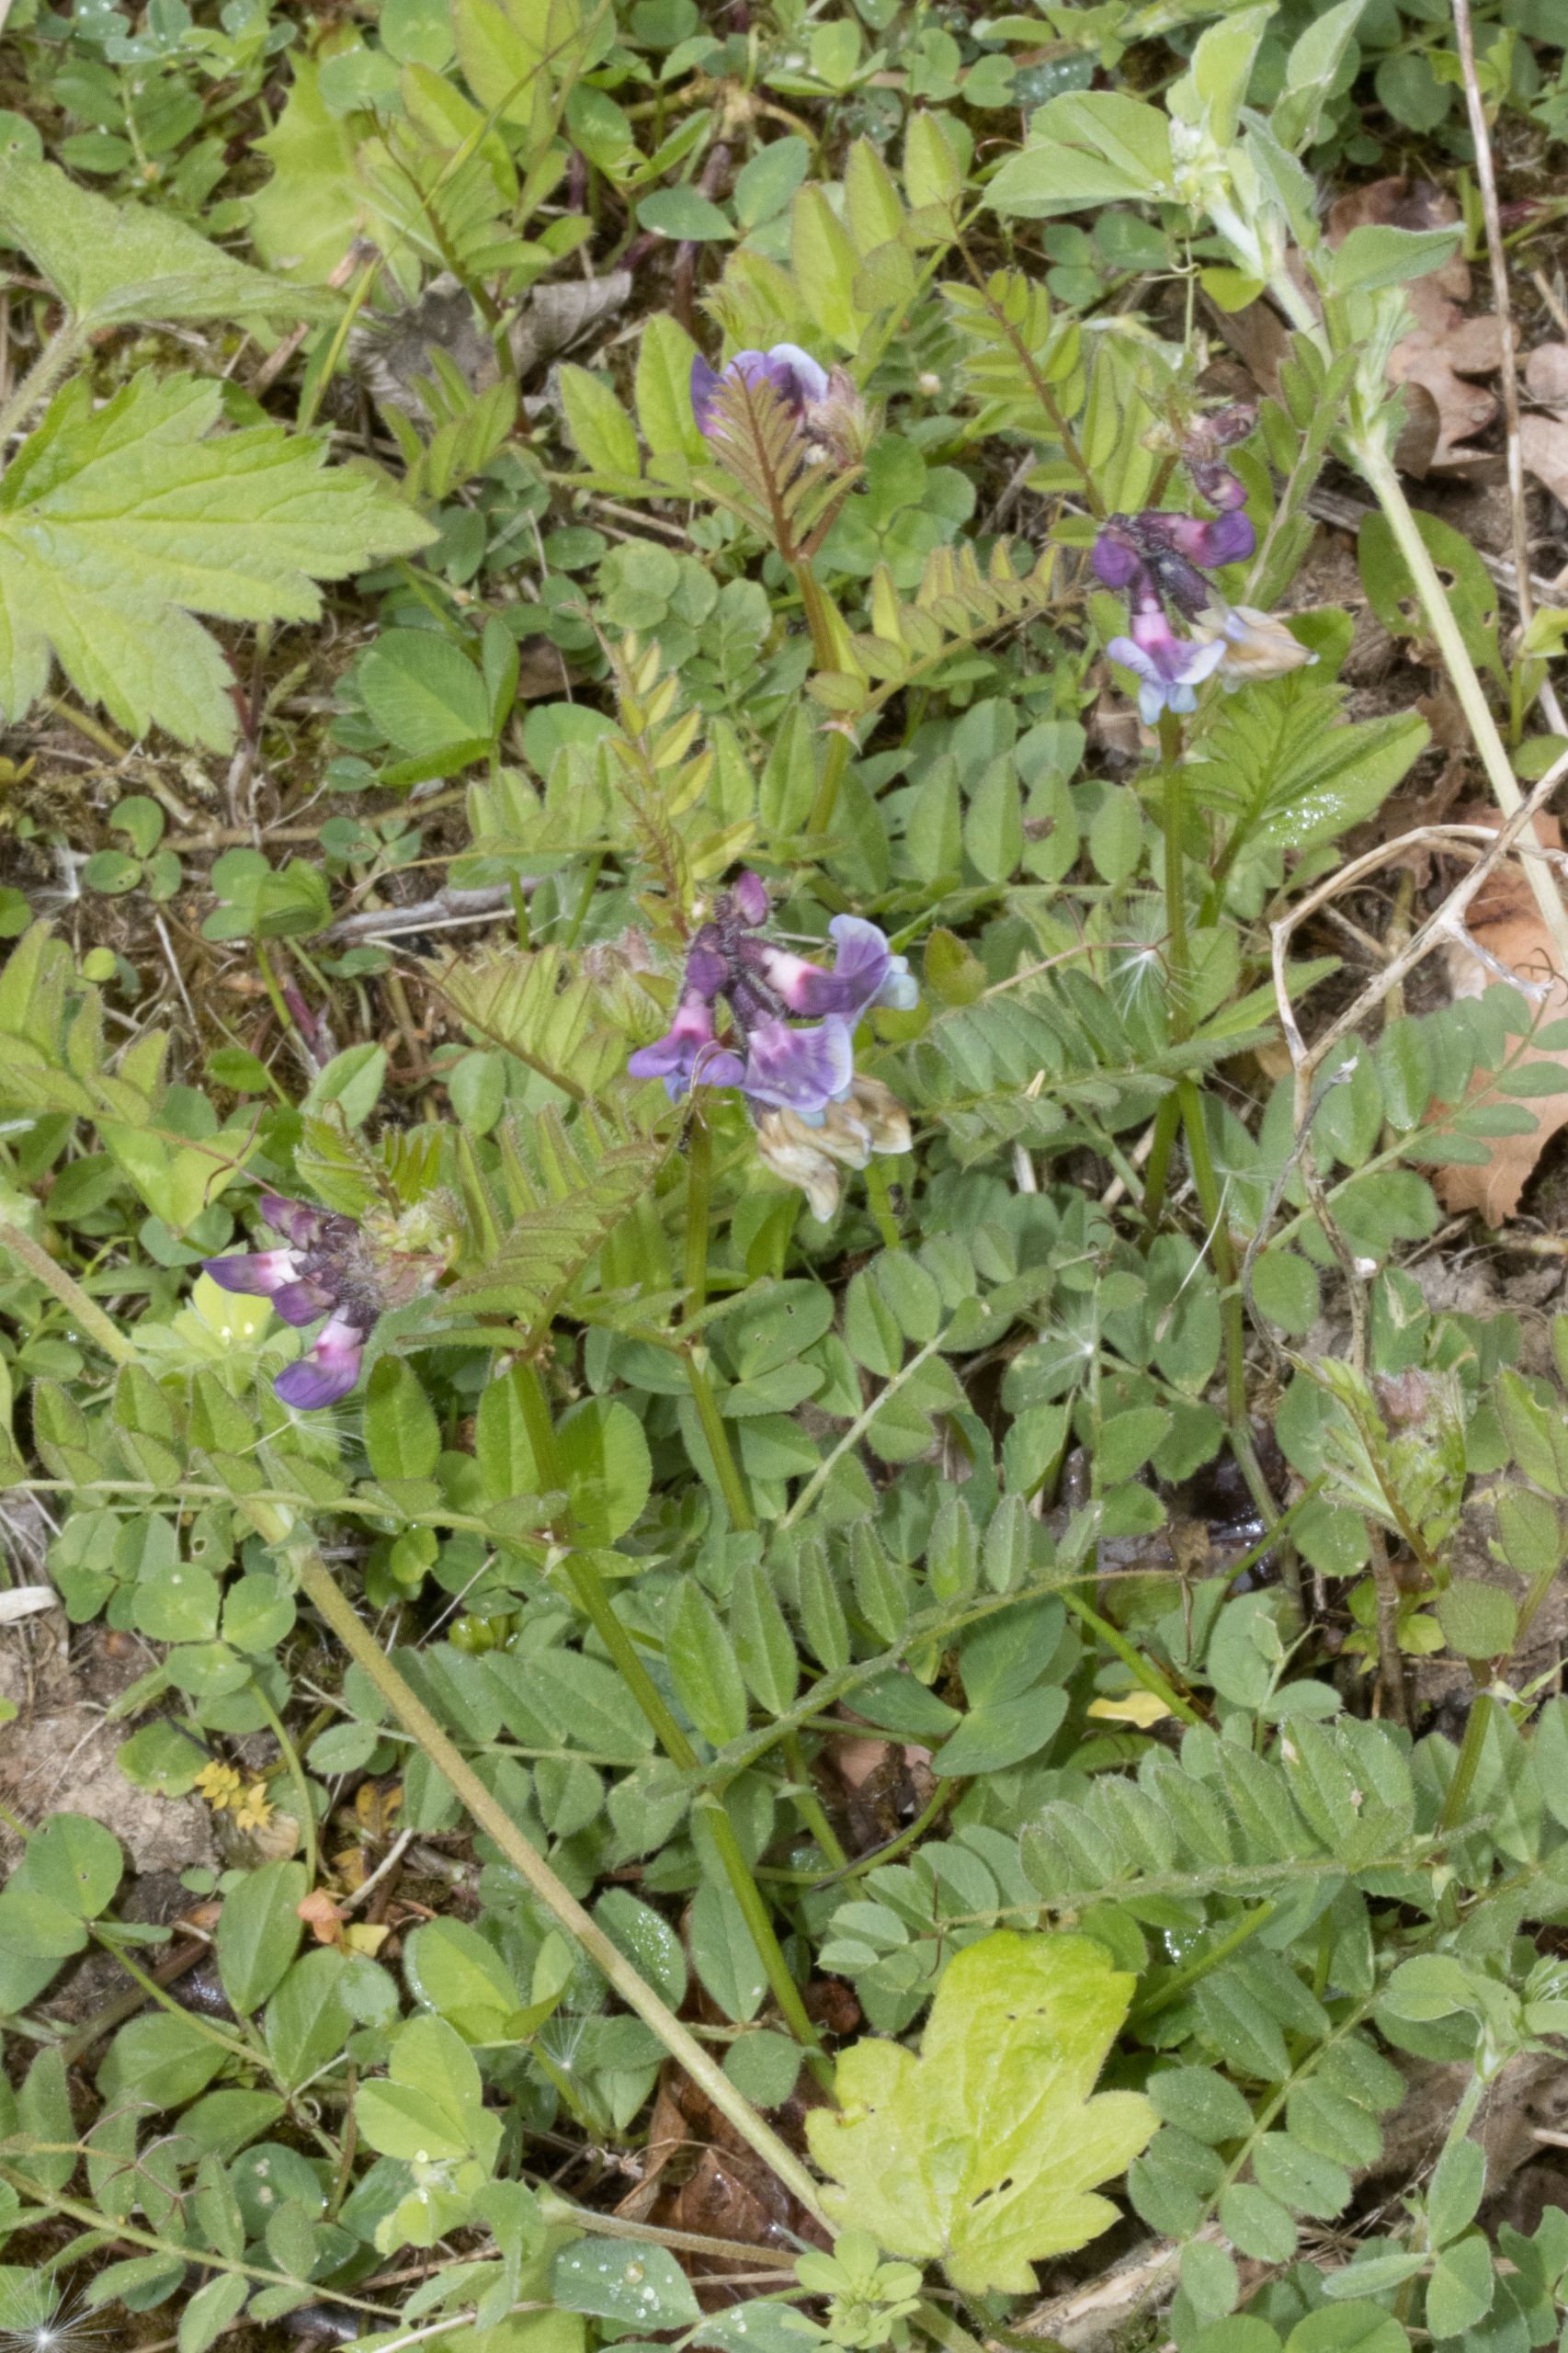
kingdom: Plantae
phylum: Tracheophyta
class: Magnoliopsida
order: Fabales
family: Fabaceae
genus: Vicia
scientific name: Vicia sepium
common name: Gærde-vikke
